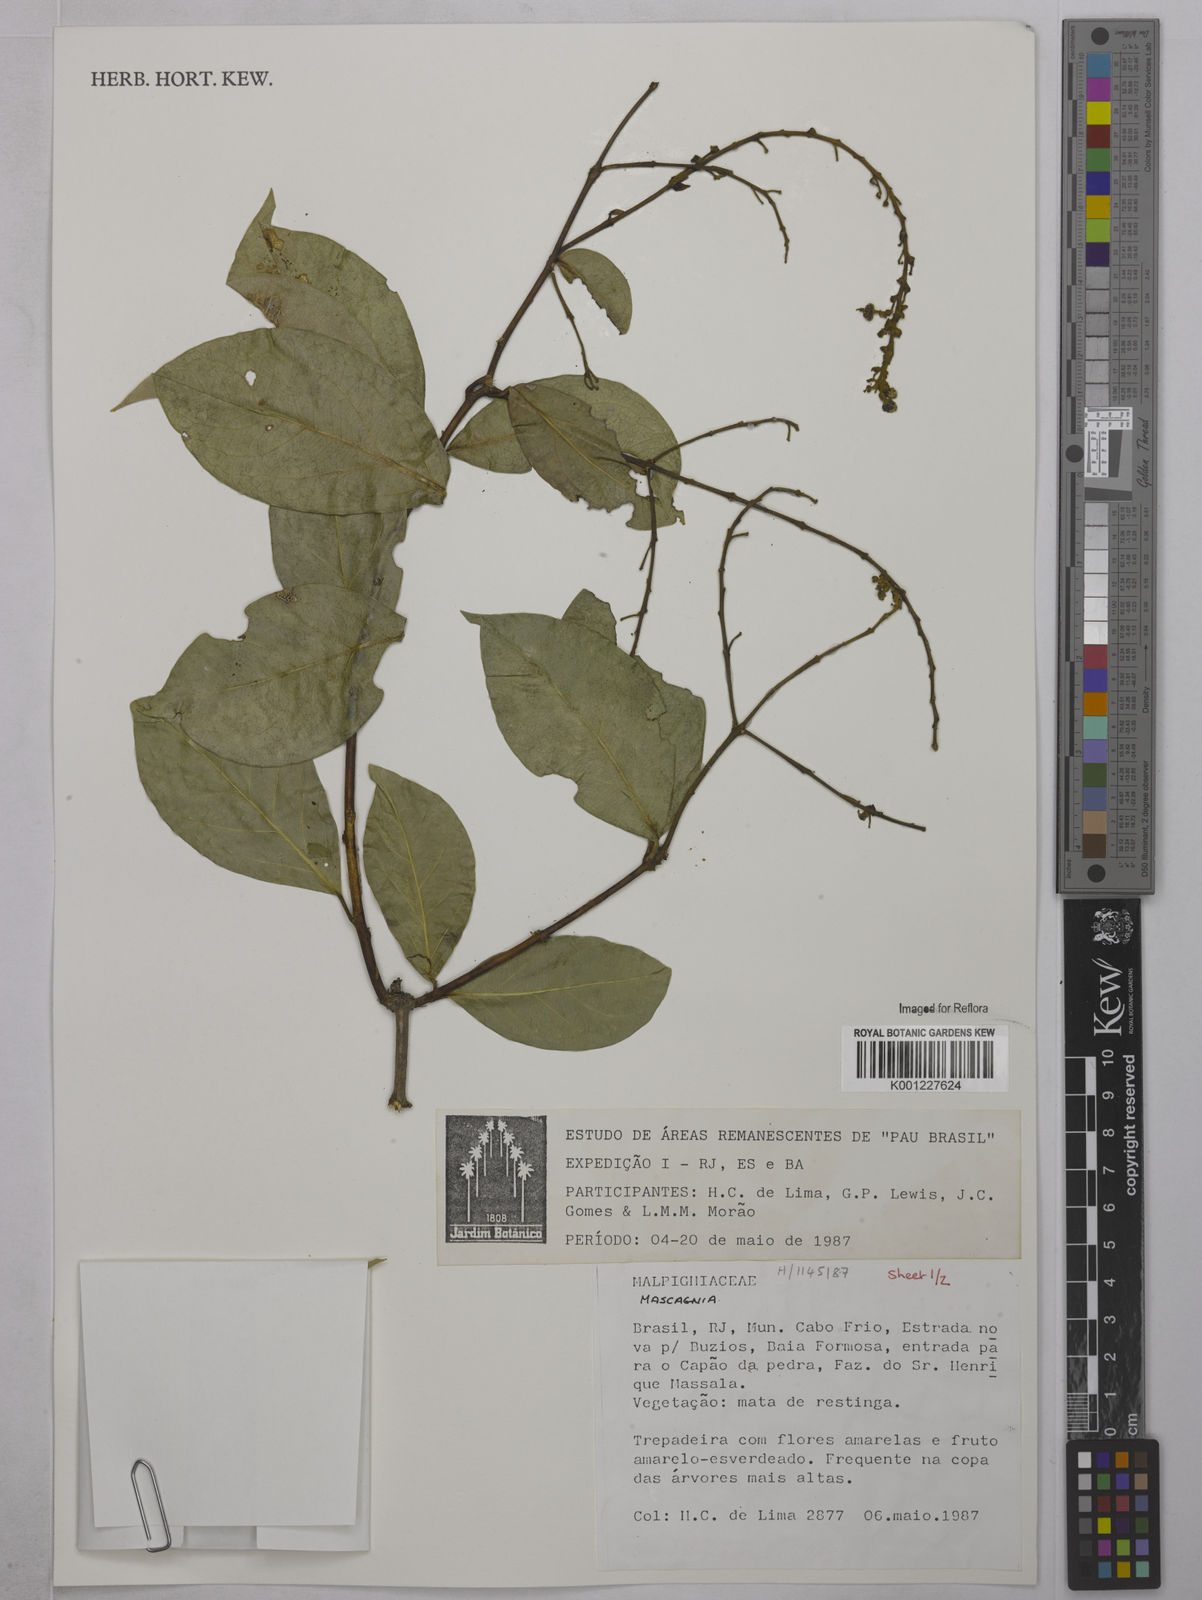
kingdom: Plantae
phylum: Tracheophyta
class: Magnoliopsida
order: Malpighiales
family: Malpighiaceae
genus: Mascagnia
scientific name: Mascagnia
